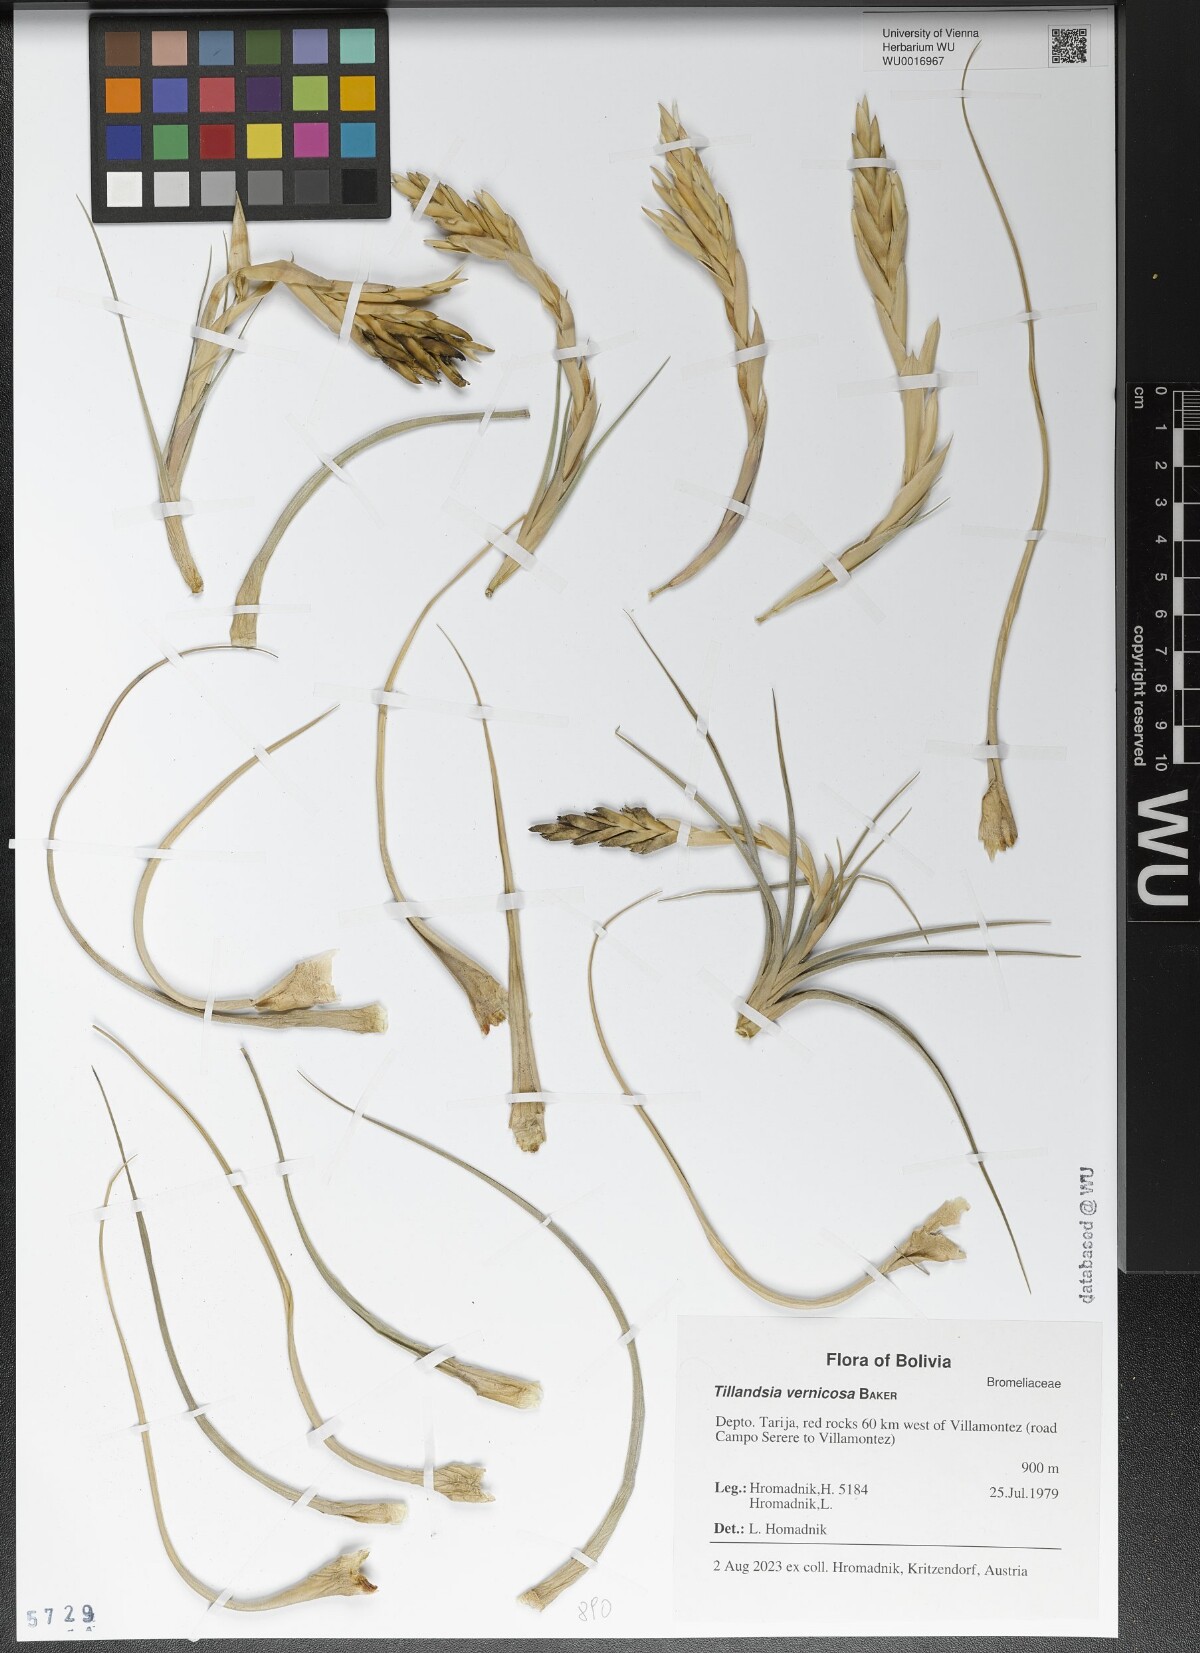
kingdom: Plantae
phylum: Tracheophyta
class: Liliopsida
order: Poales
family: Bromeliaceae
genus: Tillandsia
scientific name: Tillandsia vernicosa
